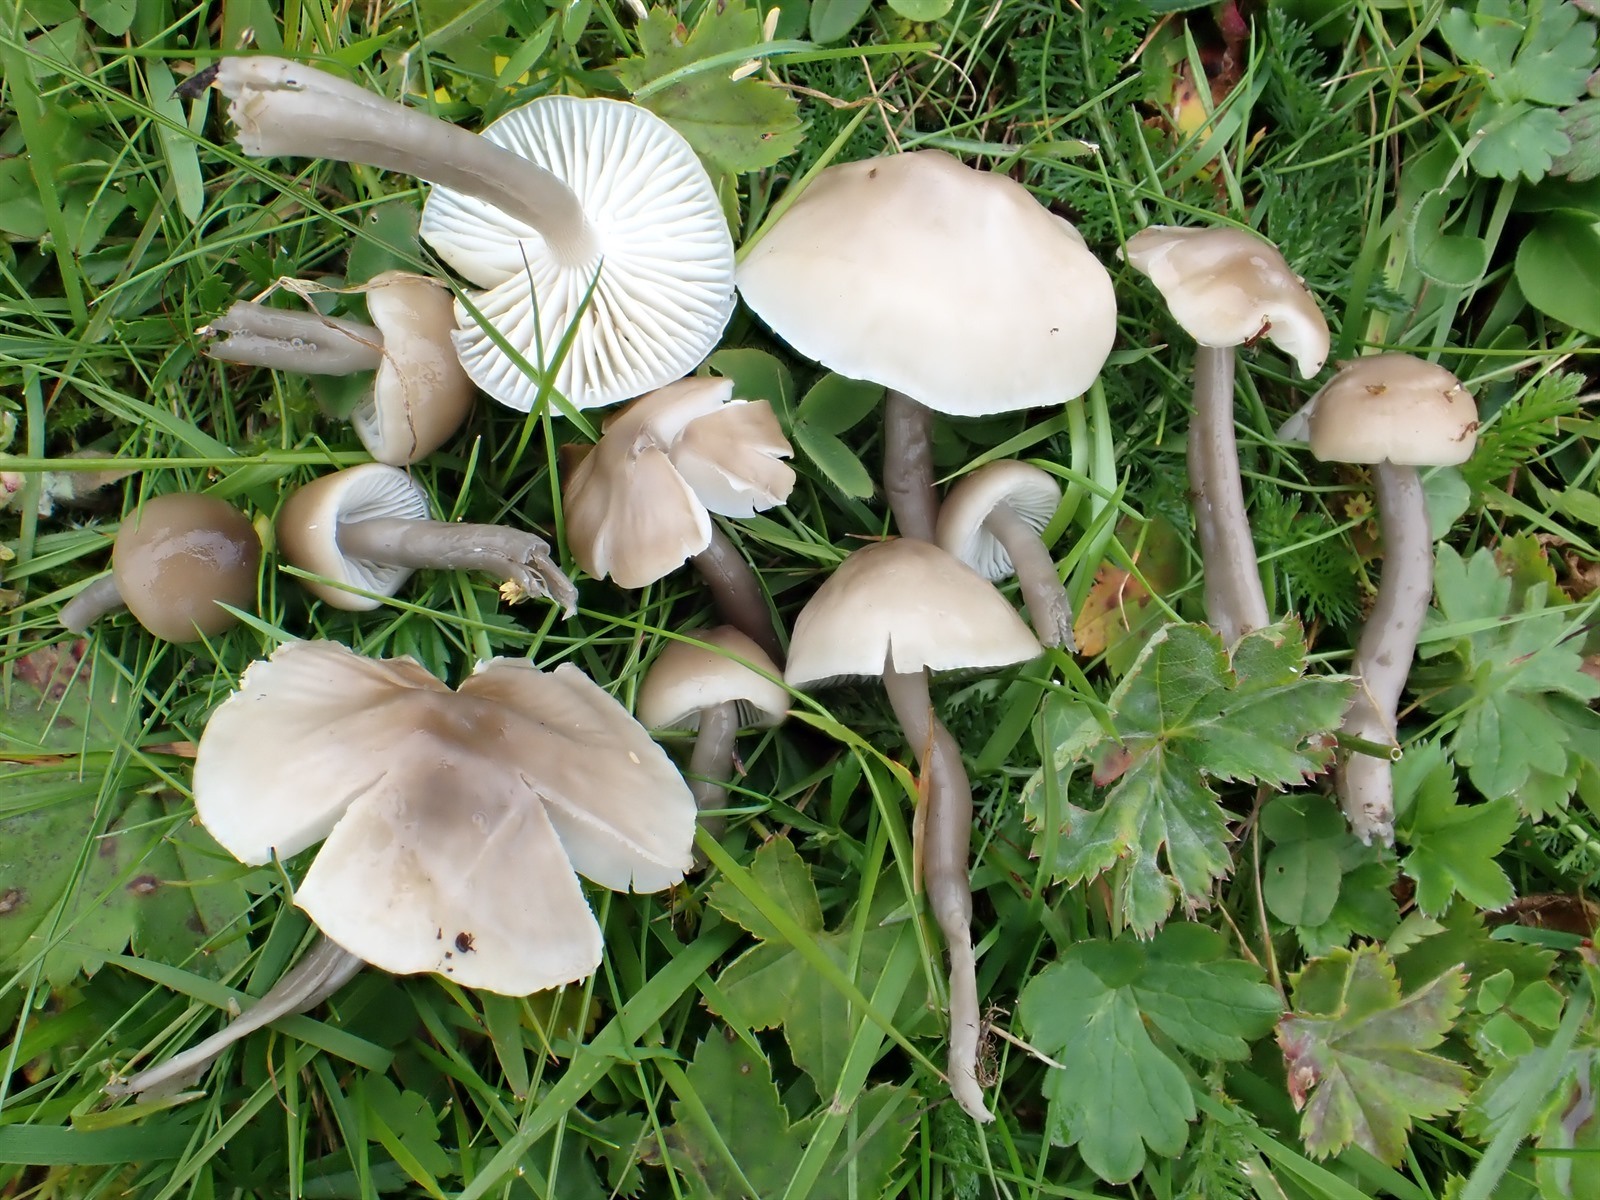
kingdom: Fungi
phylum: Basidiomycota
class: Agaricomycetes
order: Agaricales
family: Hygrophoraceae
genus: Gliophorus
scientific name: Gliophorus irrigatus
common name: Slimy waxcap
